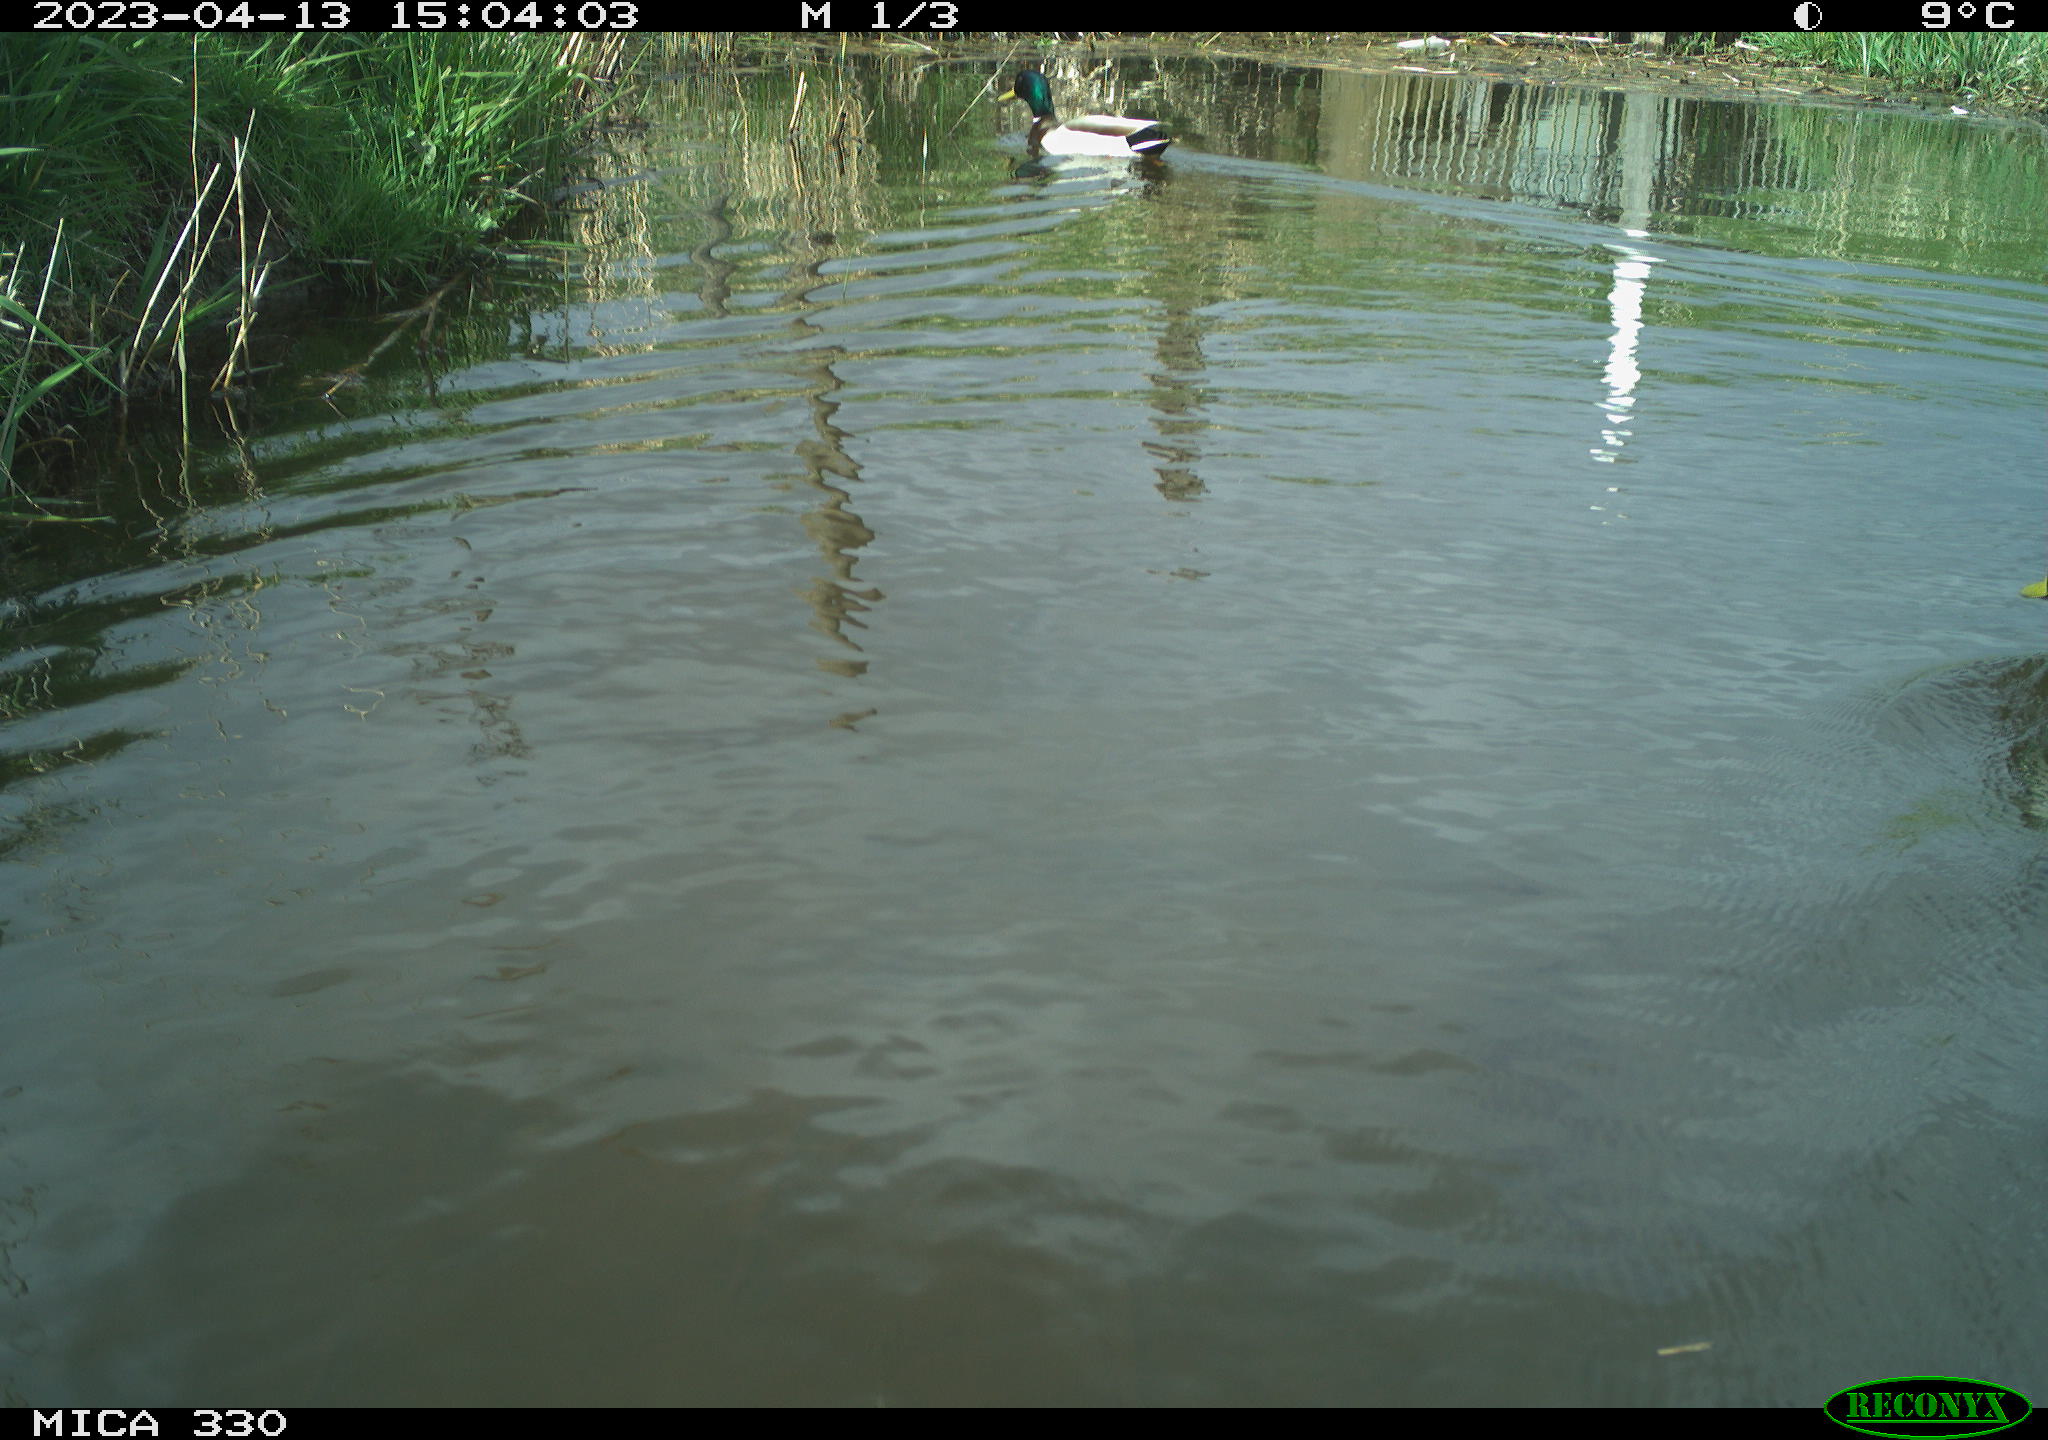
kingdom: Animalia
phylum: Chordata
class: Aves
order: Anseriformes
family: Anatidae
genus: Anas
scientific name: Anas platyrhynchos
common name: Mallard
